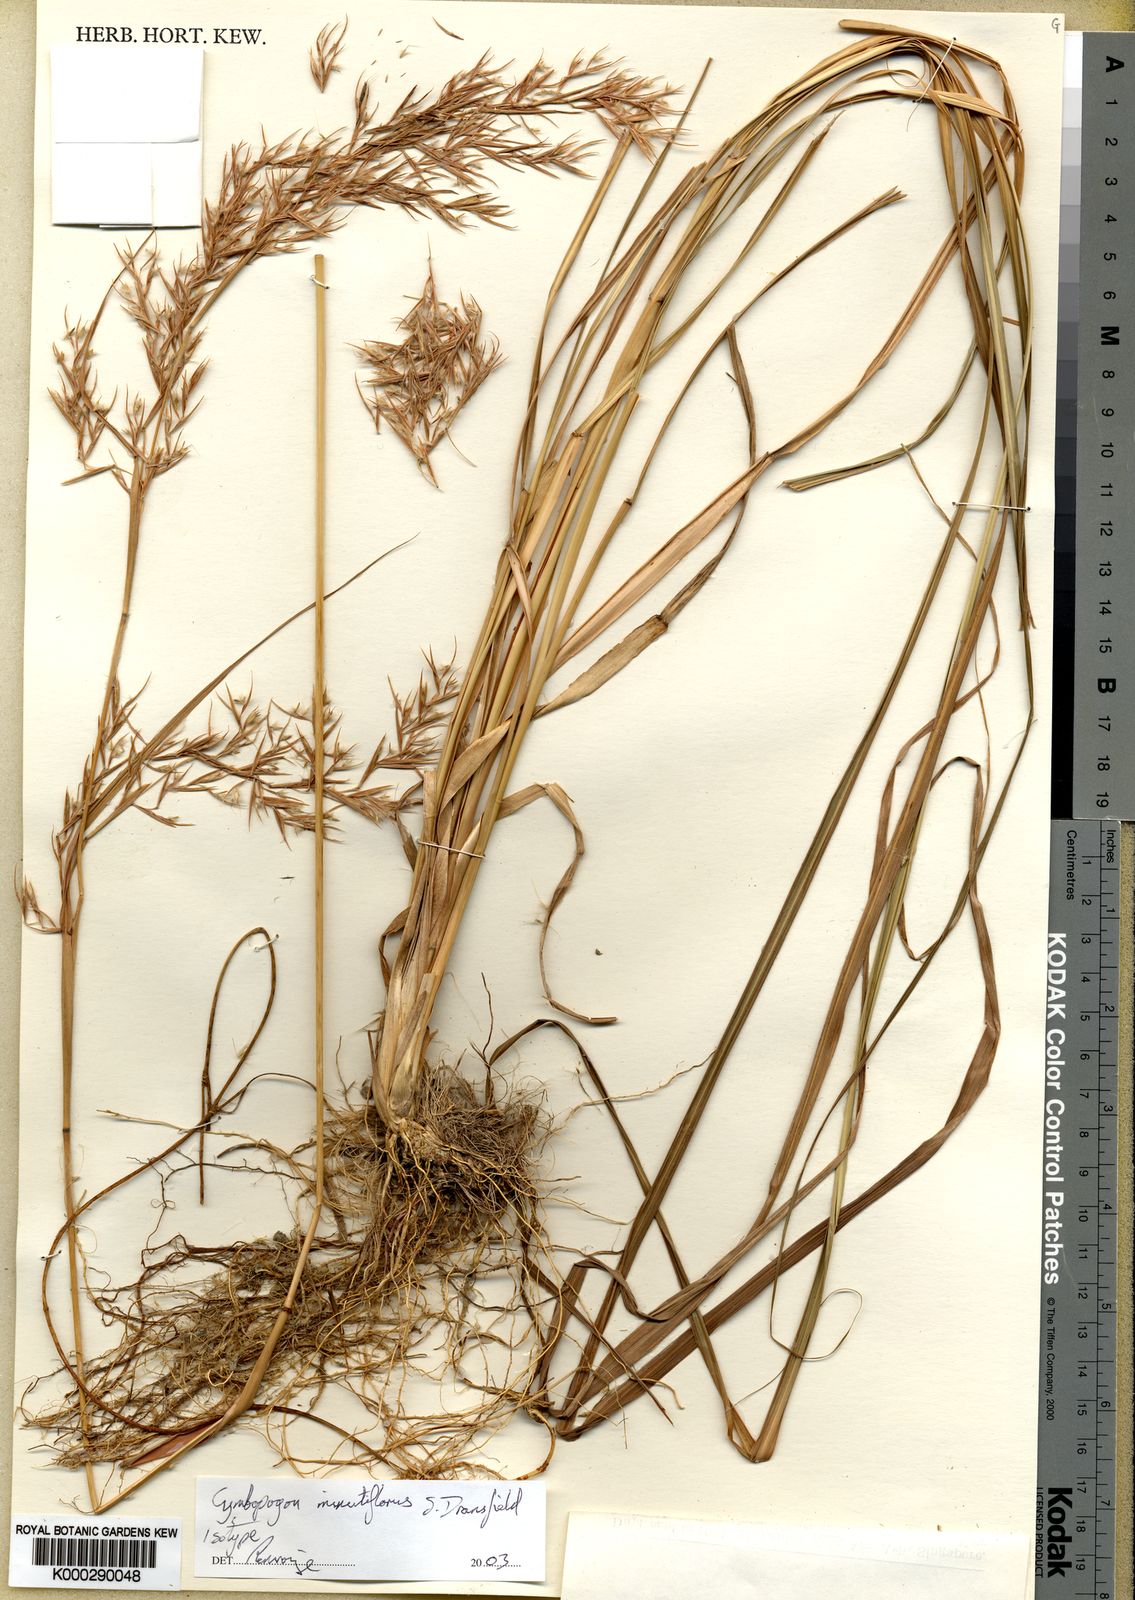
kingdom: Plantae
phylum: Tracheophyta
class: Liliopsida
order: Poales
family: Poaceae
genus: Cymbopogon
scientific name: Cymbopogon minutiflorus
